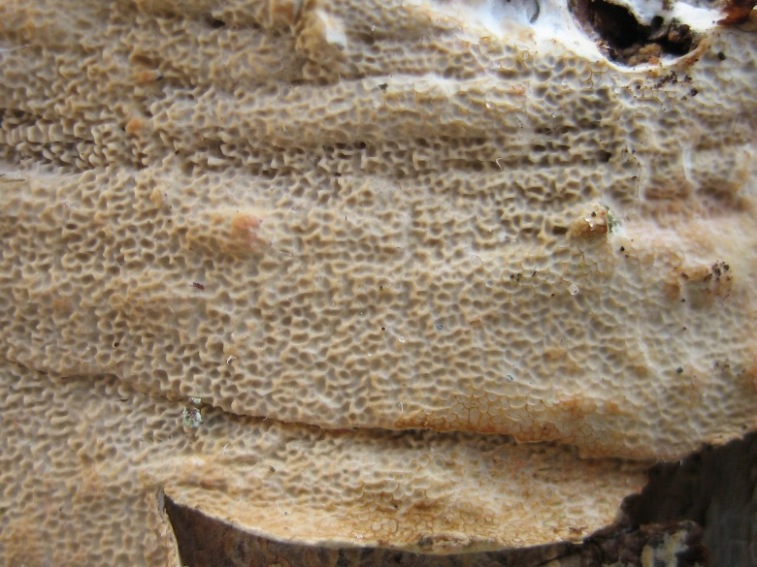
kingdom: Fungi
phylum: Basidiomycota
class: Agaricomycetes
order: Polyporales
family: Meruliaceae
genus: Phlebia
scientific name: Phlebia rufa
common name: ege-åresvamp
